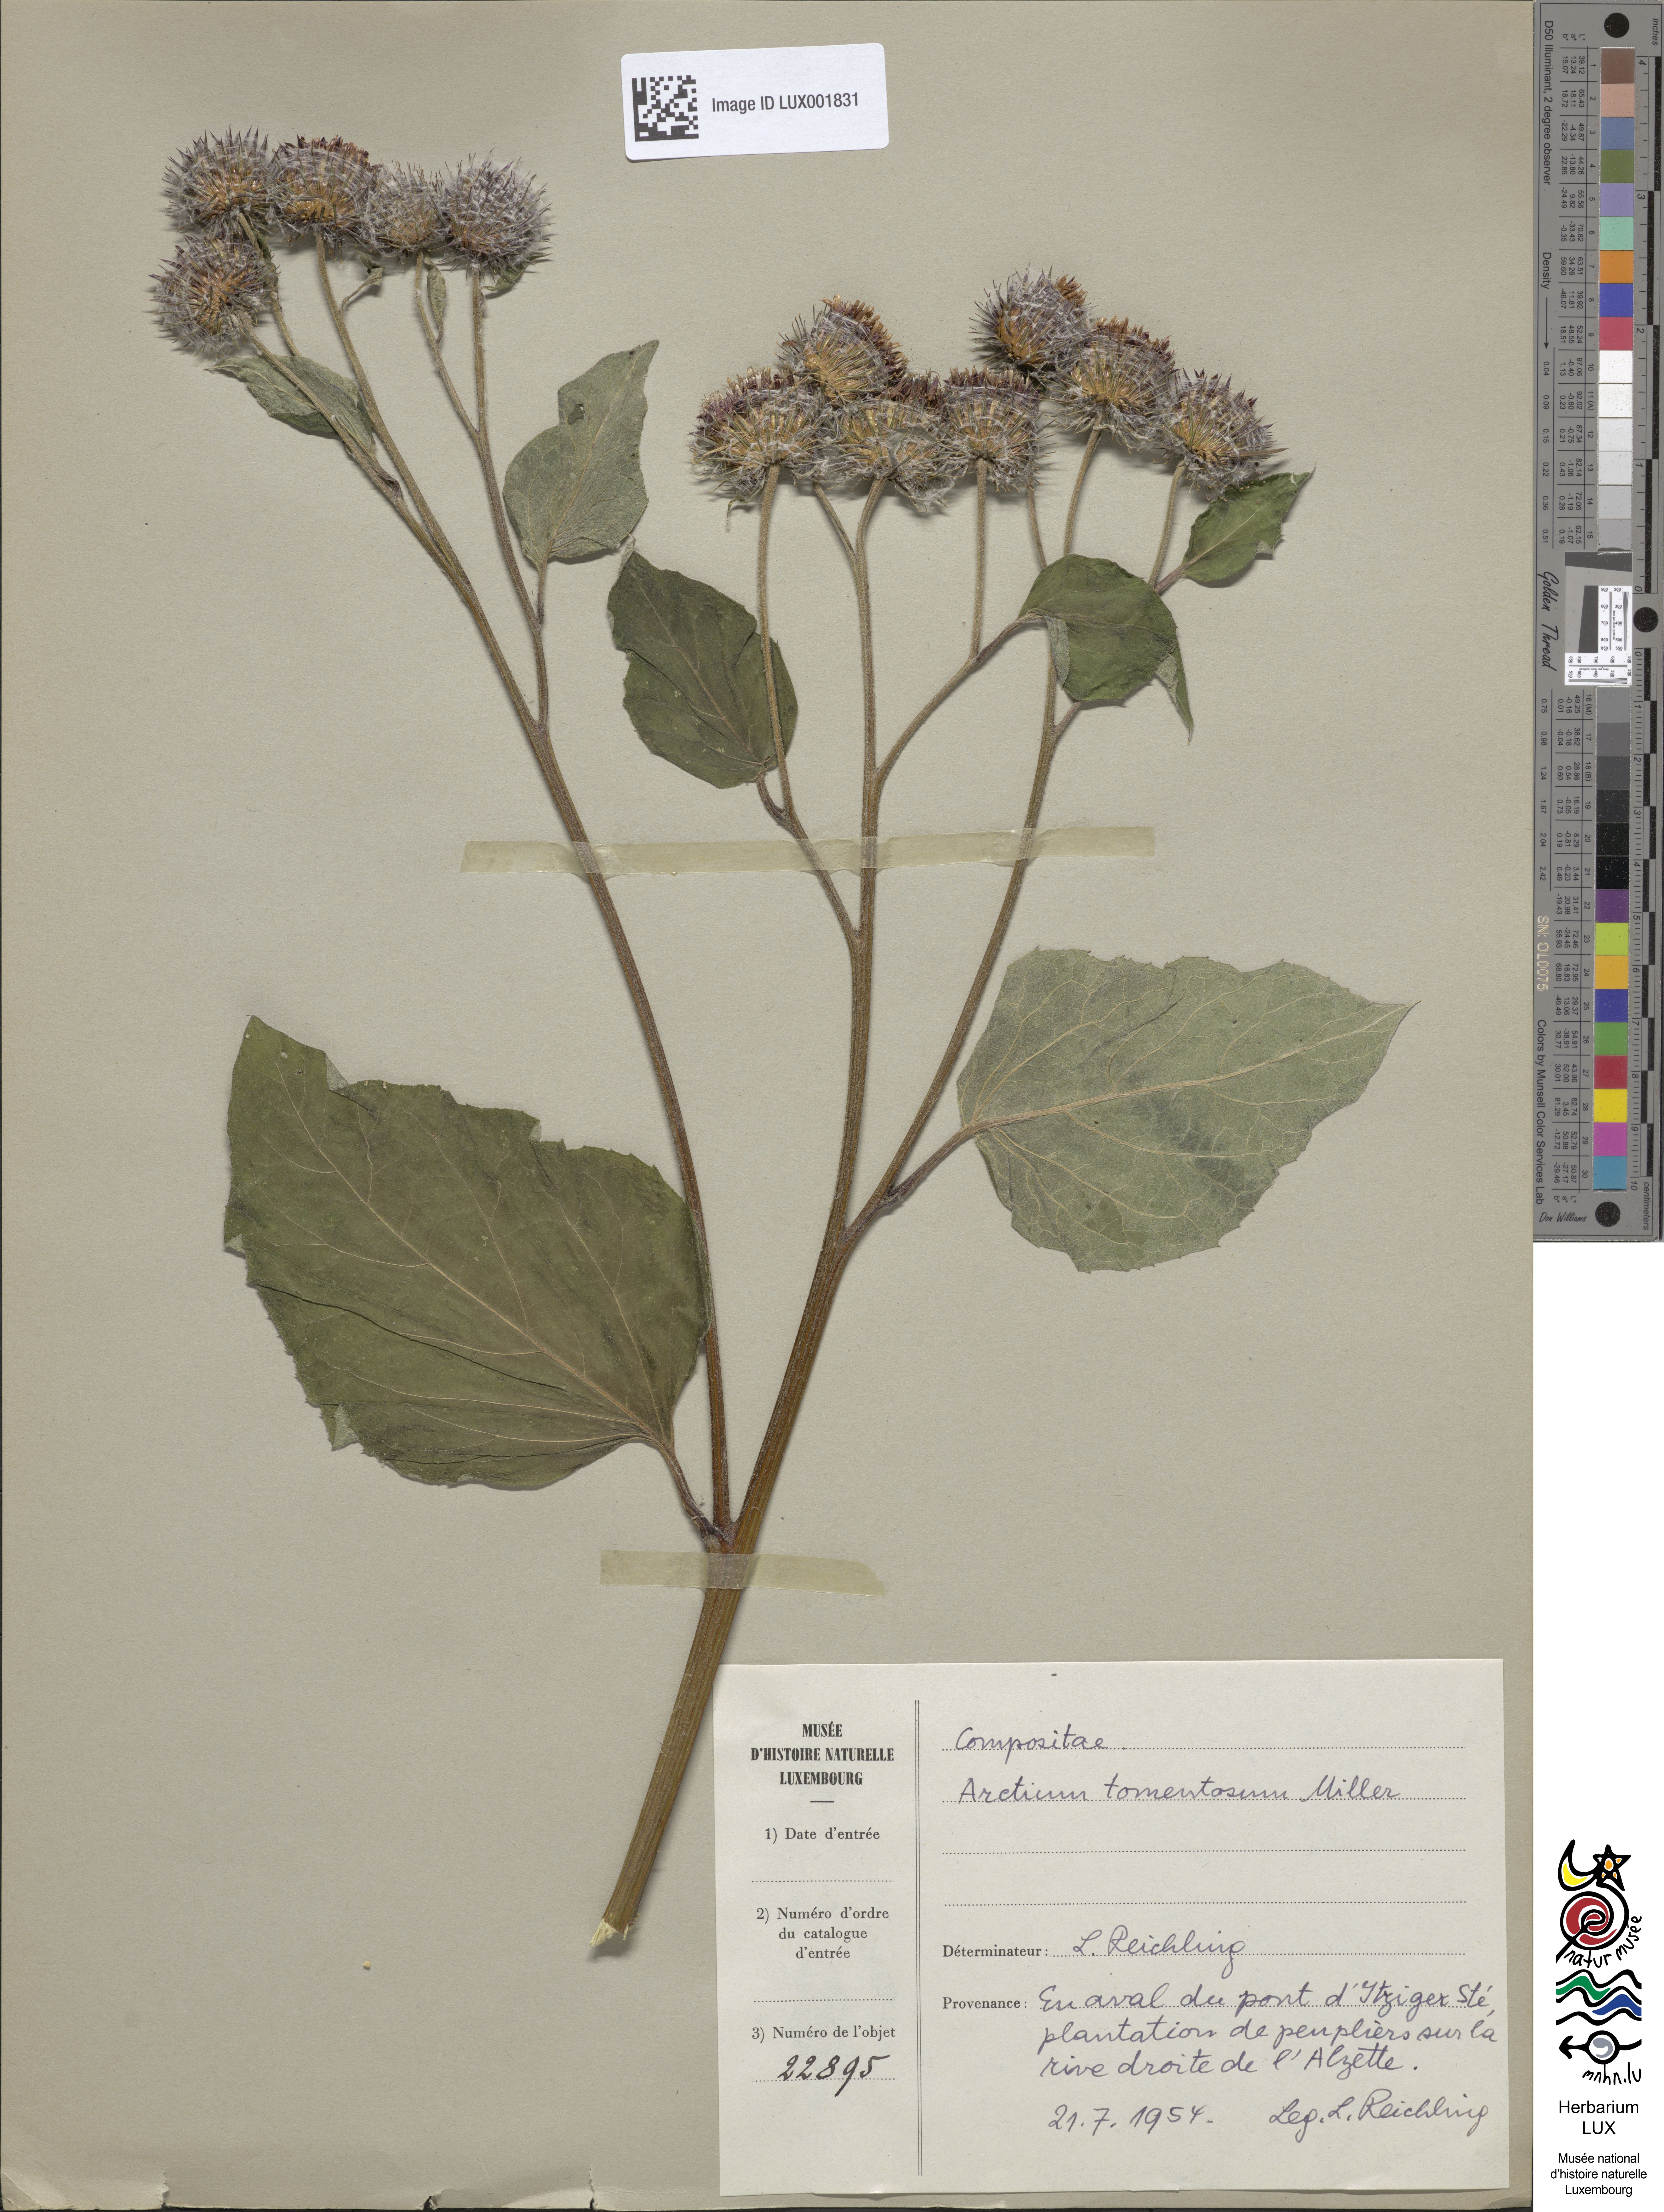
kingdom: Plantae
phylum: Tracheophyta
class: Magnoliopsida
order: Asterales
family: Asteraceae
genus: Arctium
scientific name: Arctium tomentosum
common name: Woolly burdock
